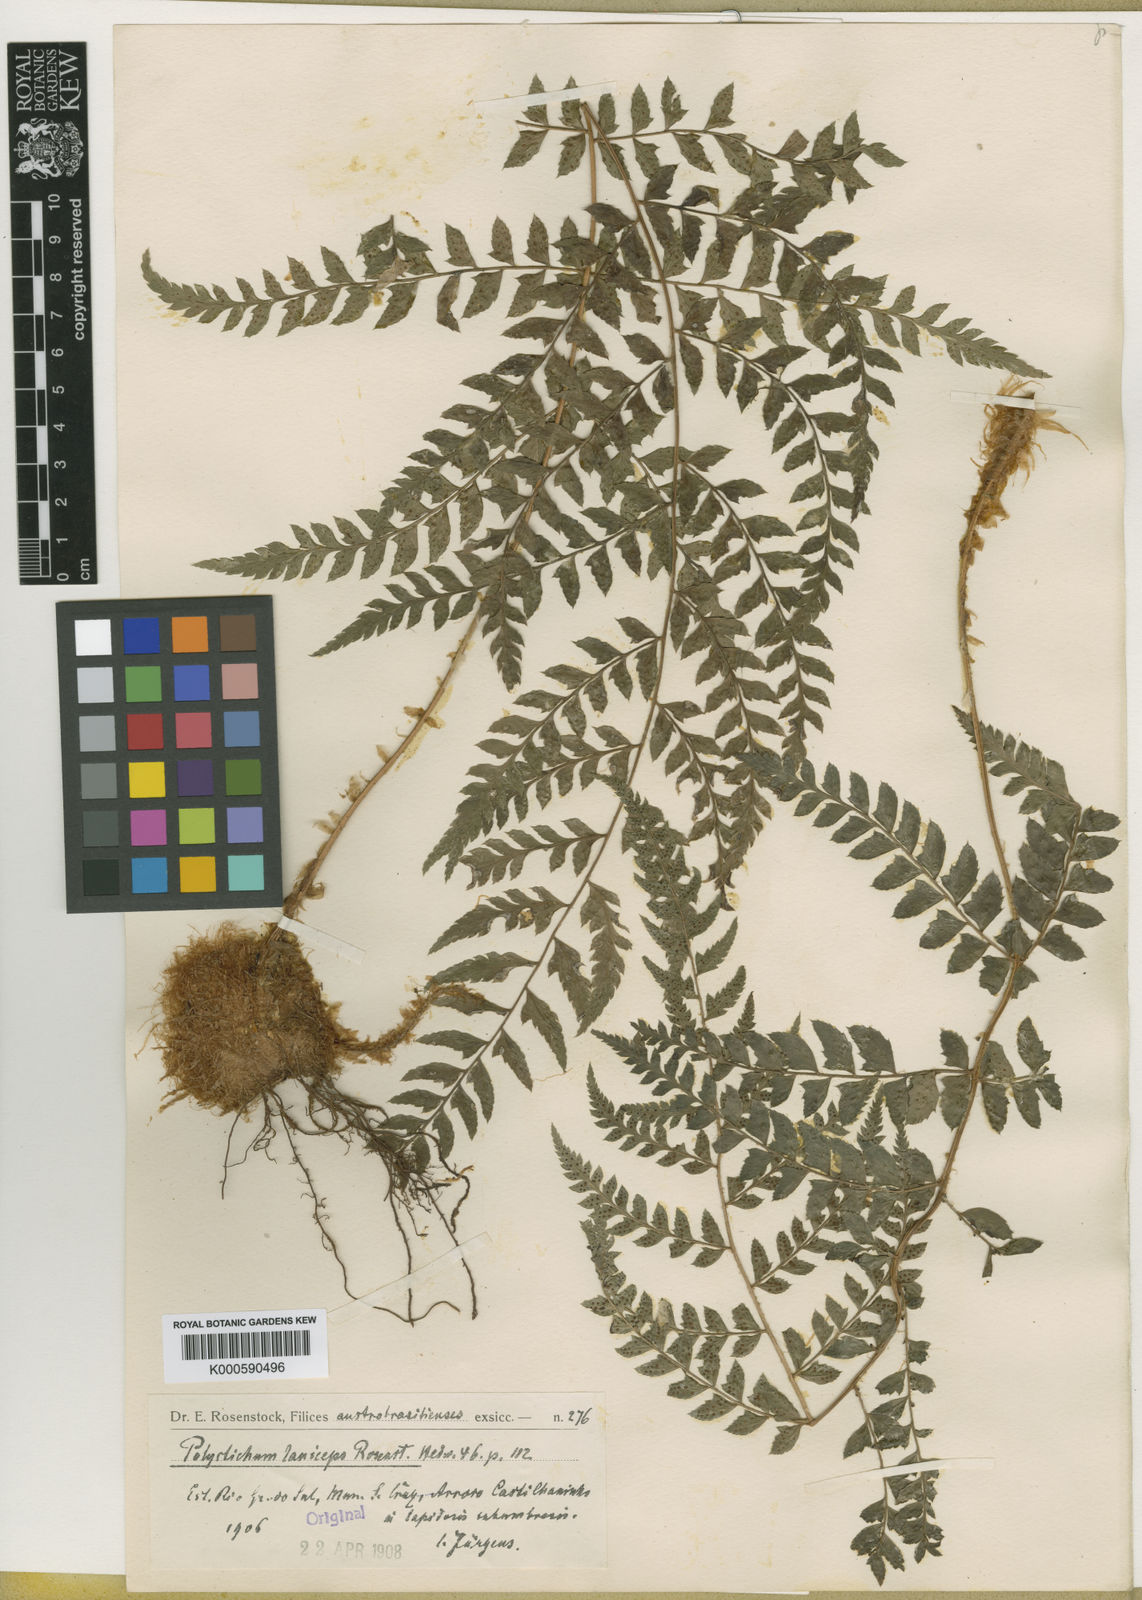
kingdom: Plantae
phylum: Tracheophyta
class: Polypodiopsida
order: Polypodiales
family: Dryopteridaceae
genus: Polystichum
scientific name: Polystichum laniceps
